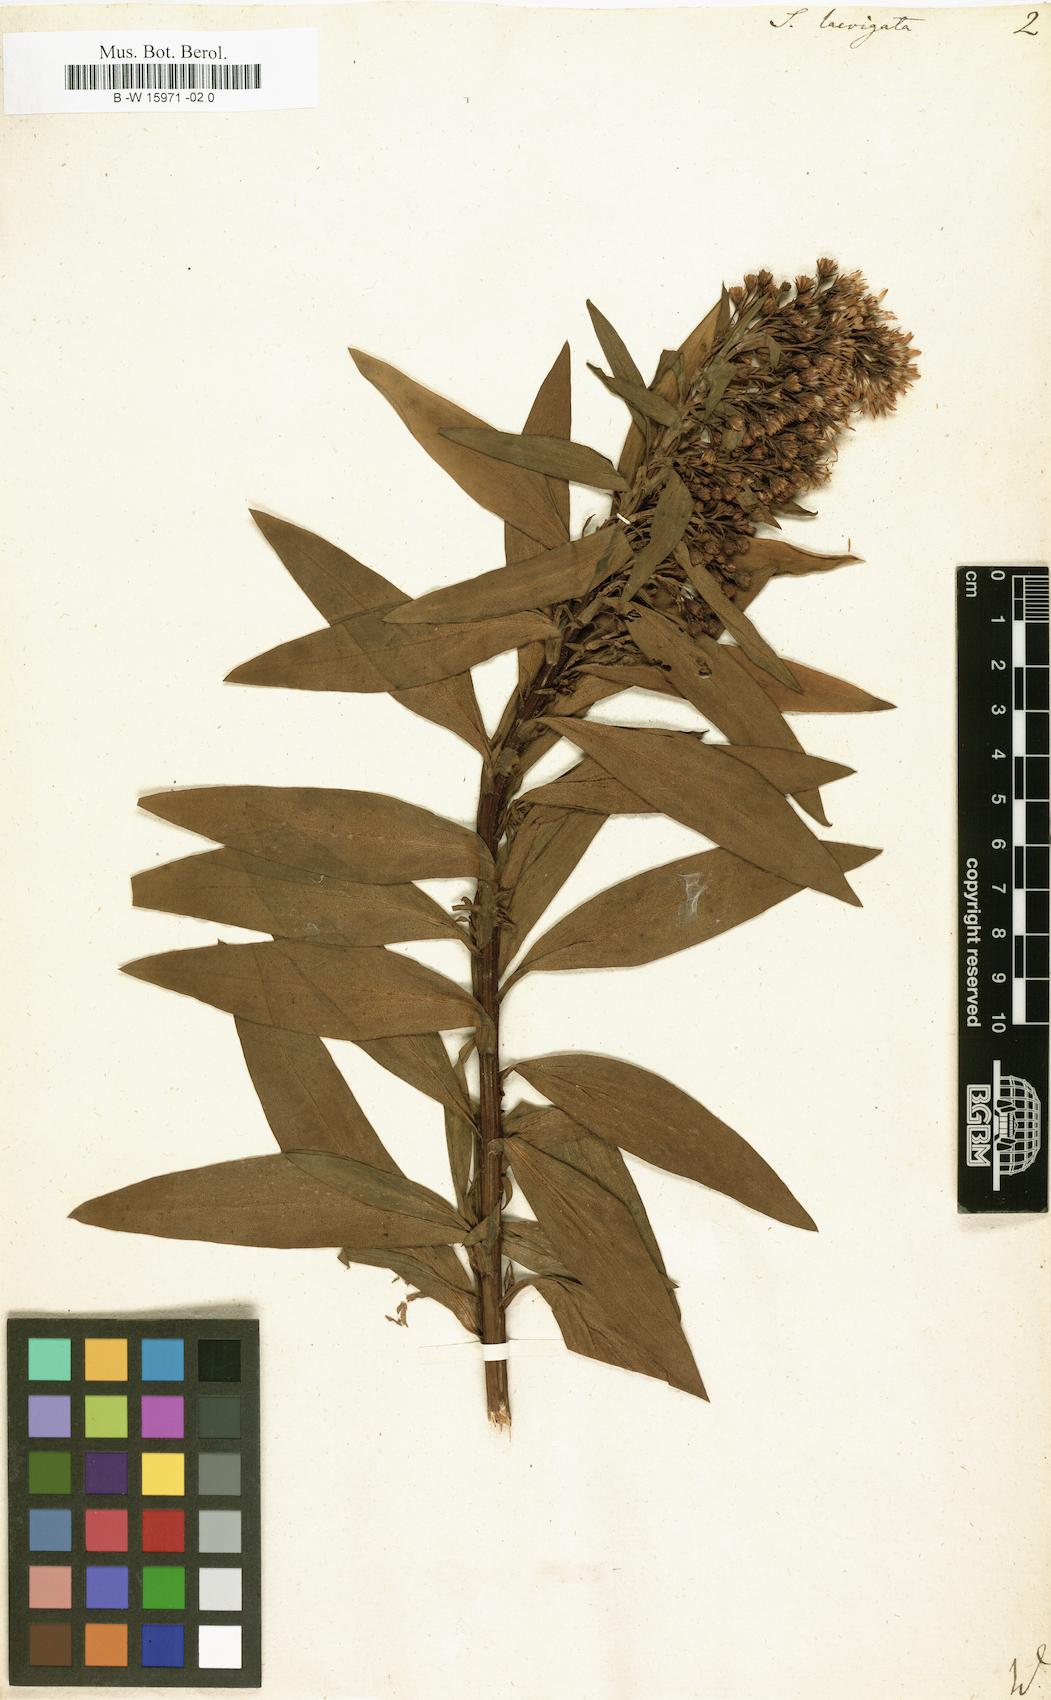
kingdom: Plantae
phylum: Tracheophyta
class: Magnoliopsida
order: Asterales
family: Asteraceae
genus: Solidago
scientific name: Solidago sempervirens
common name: Salt-marsh goldenrod
